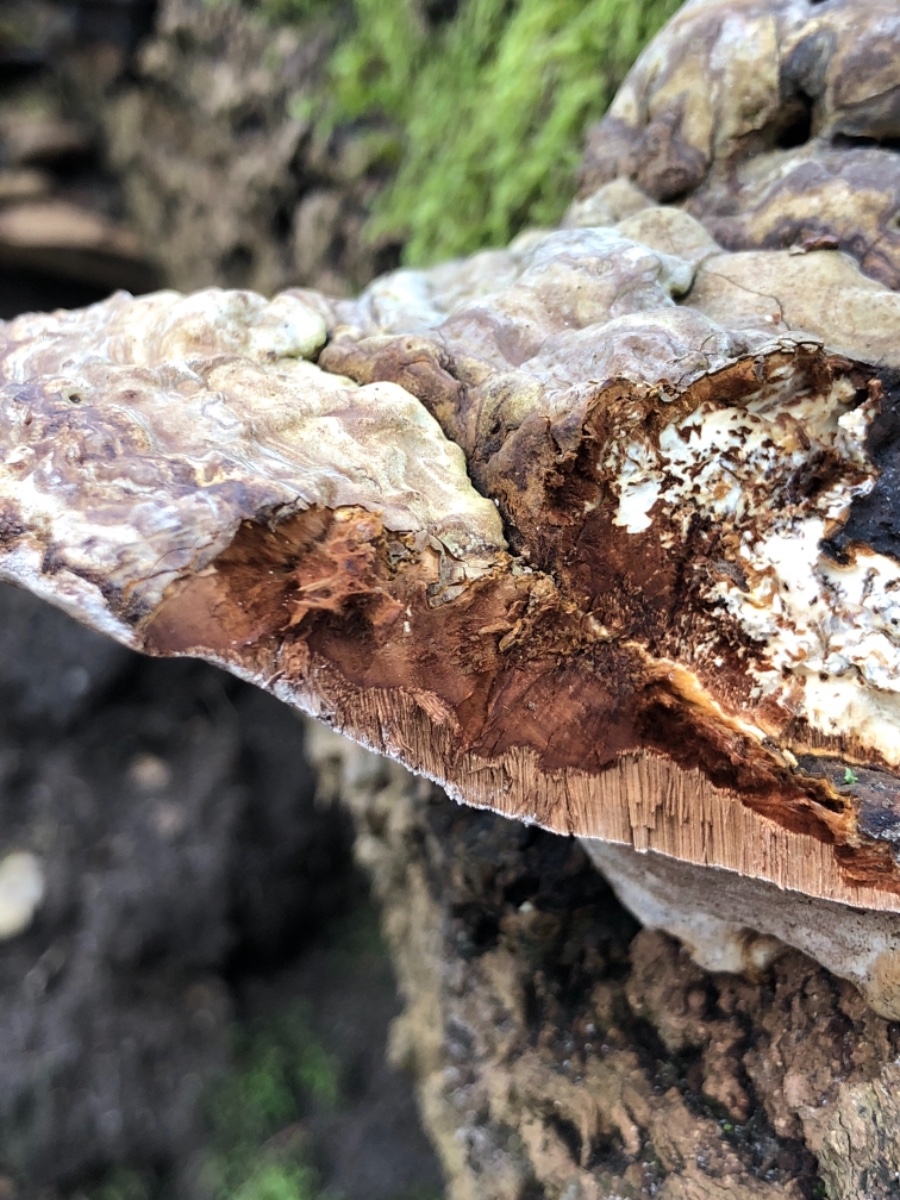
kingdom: Fungi
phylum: Basidiomycota
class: Agaricomycetes
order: Polyporales
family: Polyporaceae
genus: Ganoderma
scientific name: Ganoderma applanatum
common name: flad lakporesvamp
